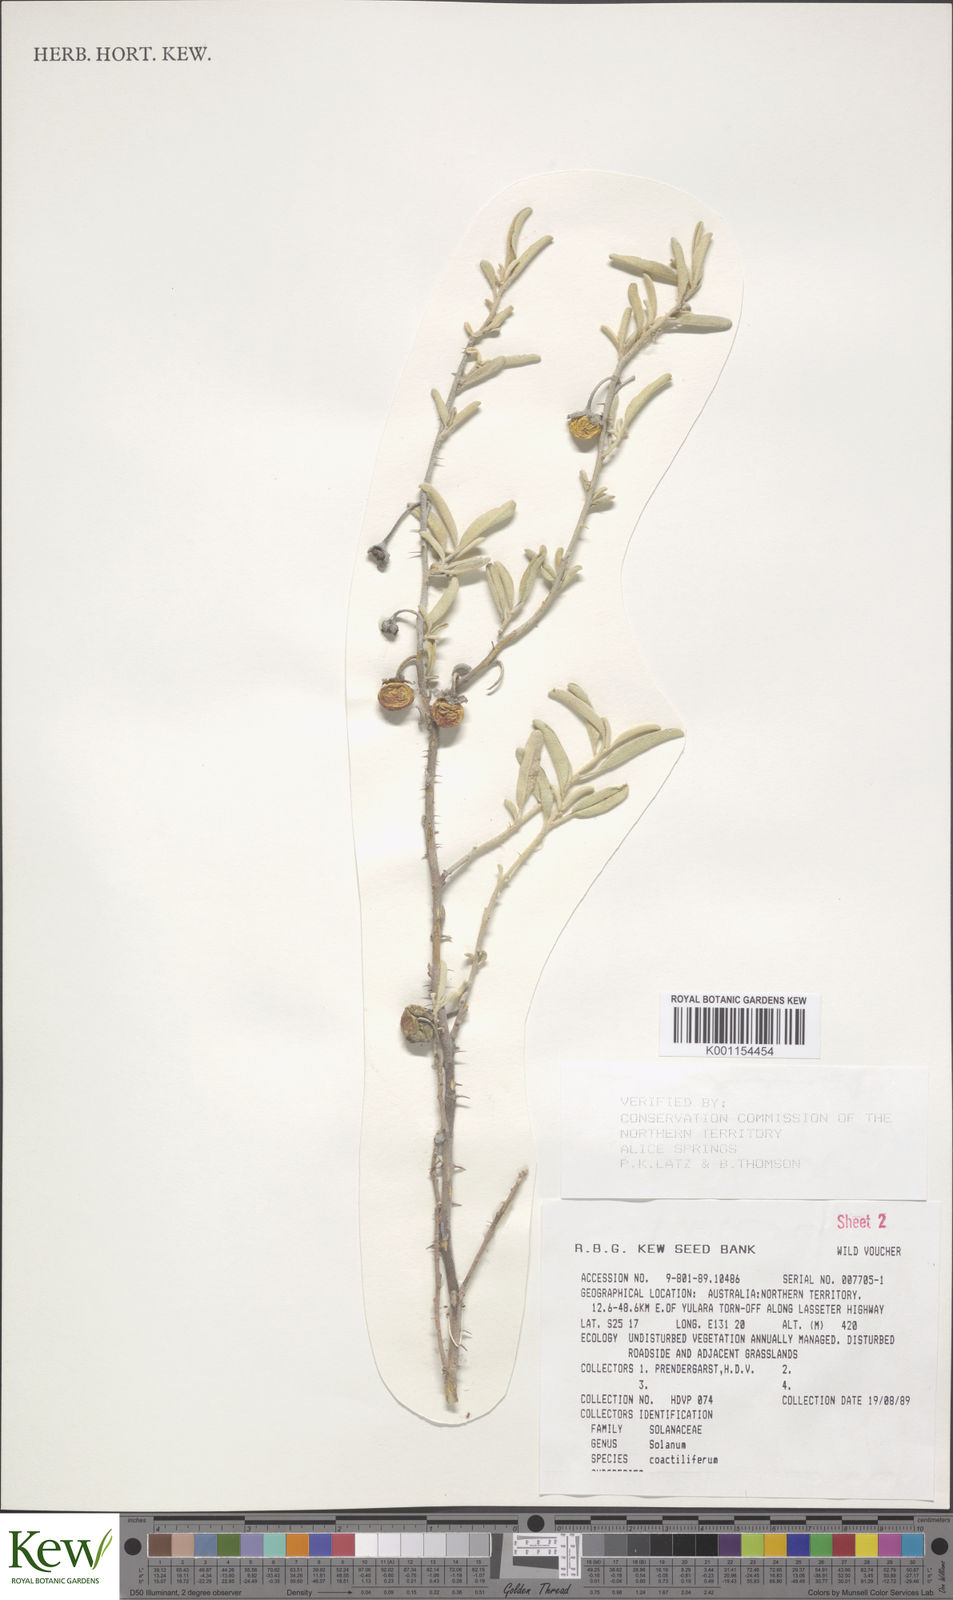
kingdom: Plantae
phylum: Tracheophyta
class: Magnoliopsida
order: Solanales
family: Solanaceae
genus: Solanum
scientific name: Solanum coactiliferum
